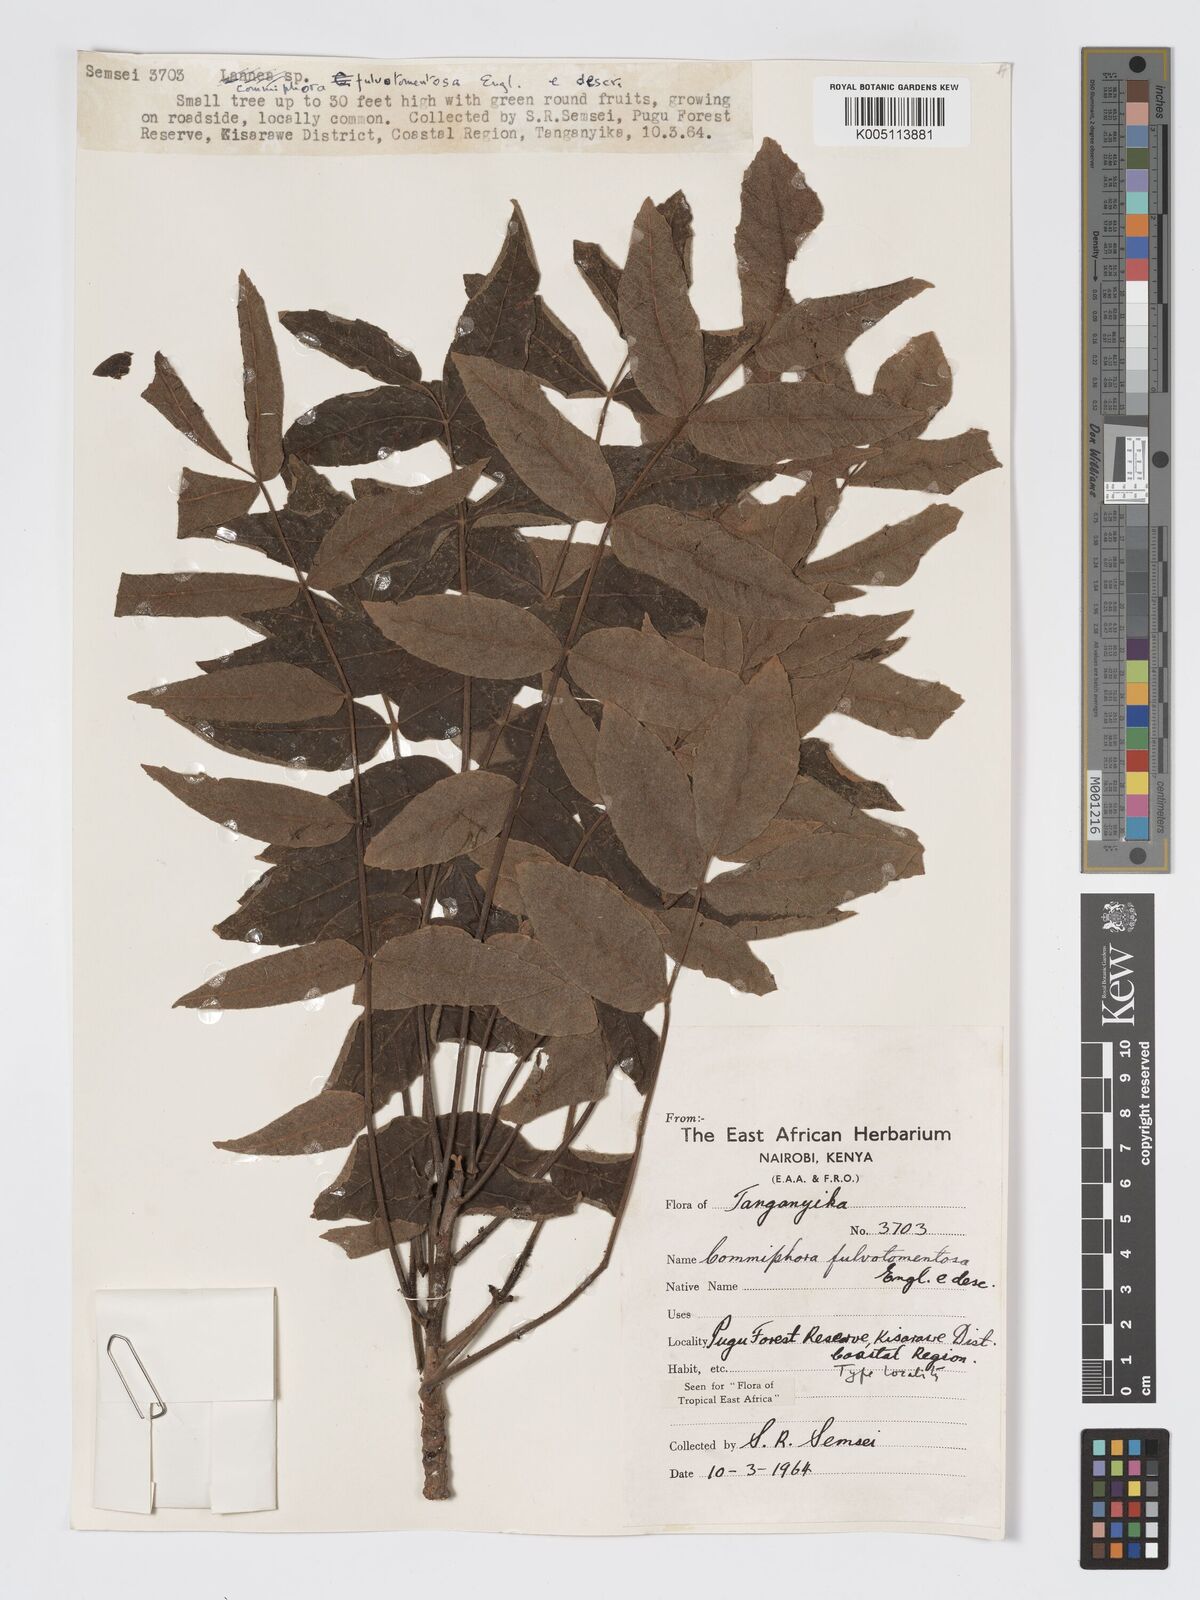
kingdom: Plantae
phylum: Tracheophyta
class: Magnoliopsida
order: Sapindales
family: Burseraceae
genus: Commiphora
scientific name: Commiphora fulvotomentosa
